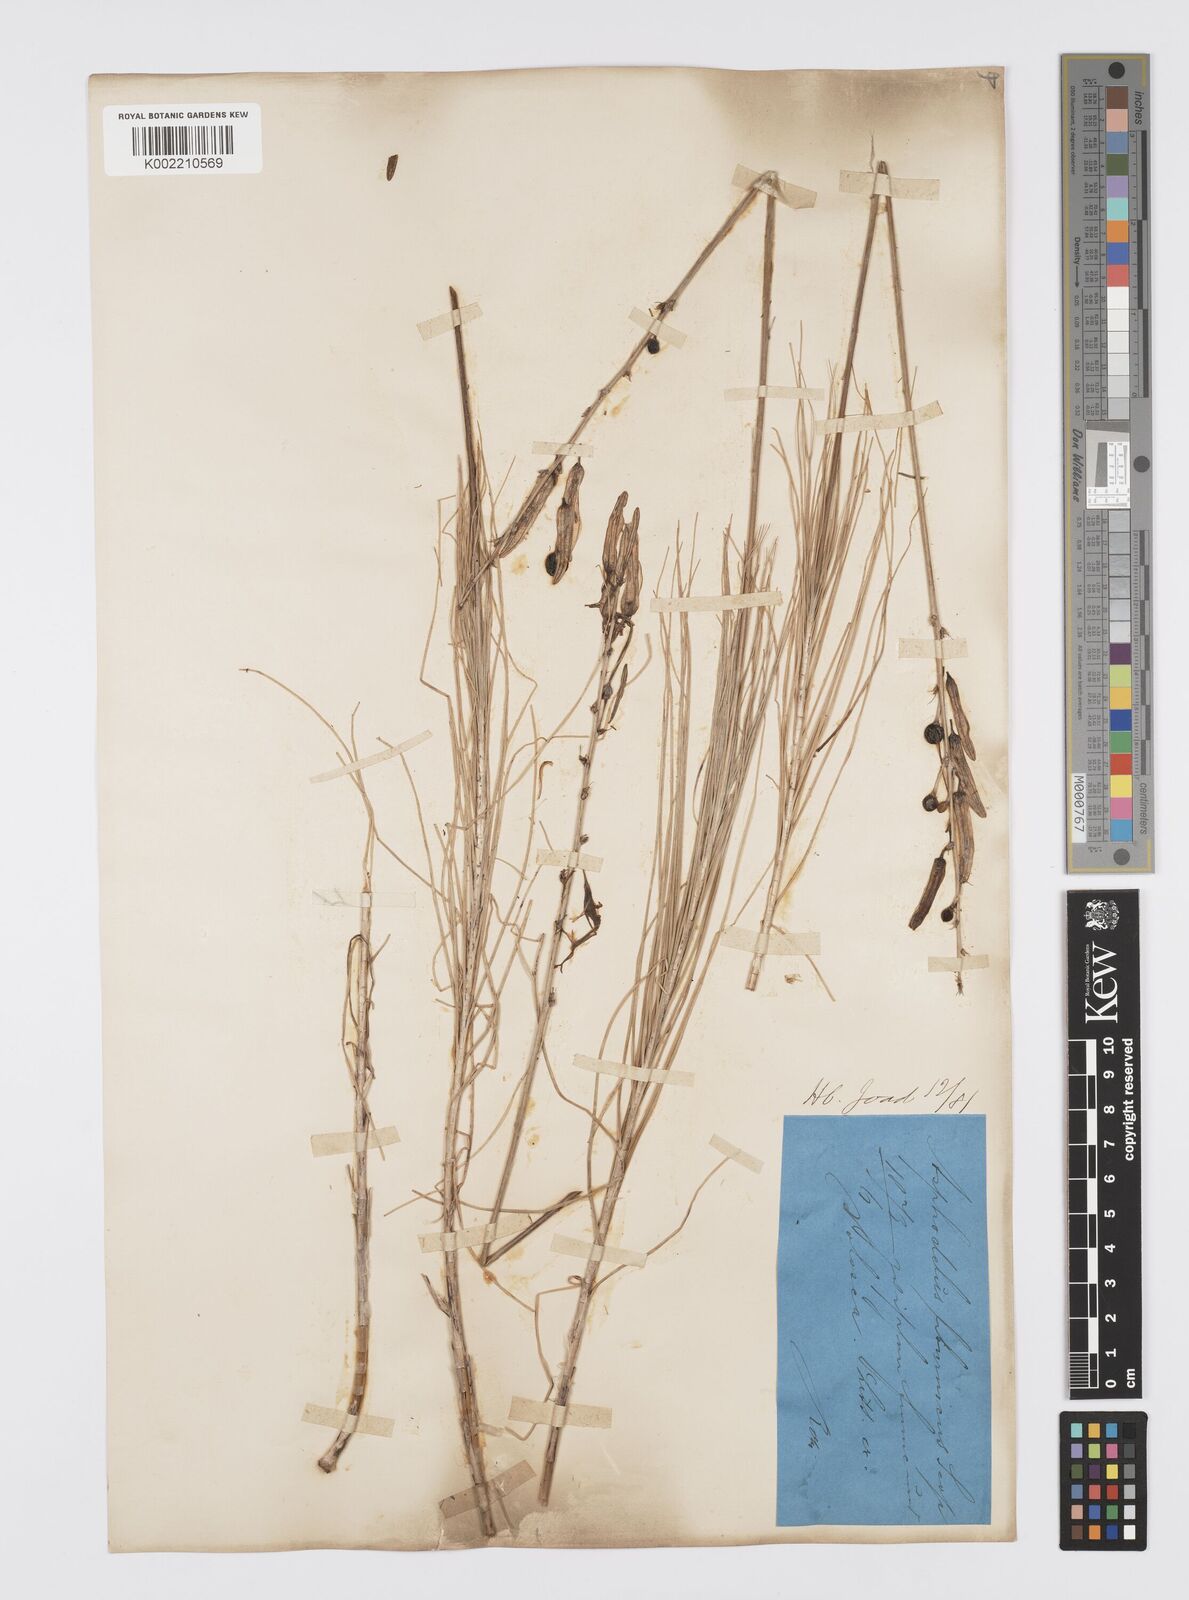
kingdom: Plantae
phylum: Tracheophyta
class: Liliopsida
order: Asparagales
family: Asphodelaceae
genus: Asphodeline
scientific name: Asphodeline liburnica
